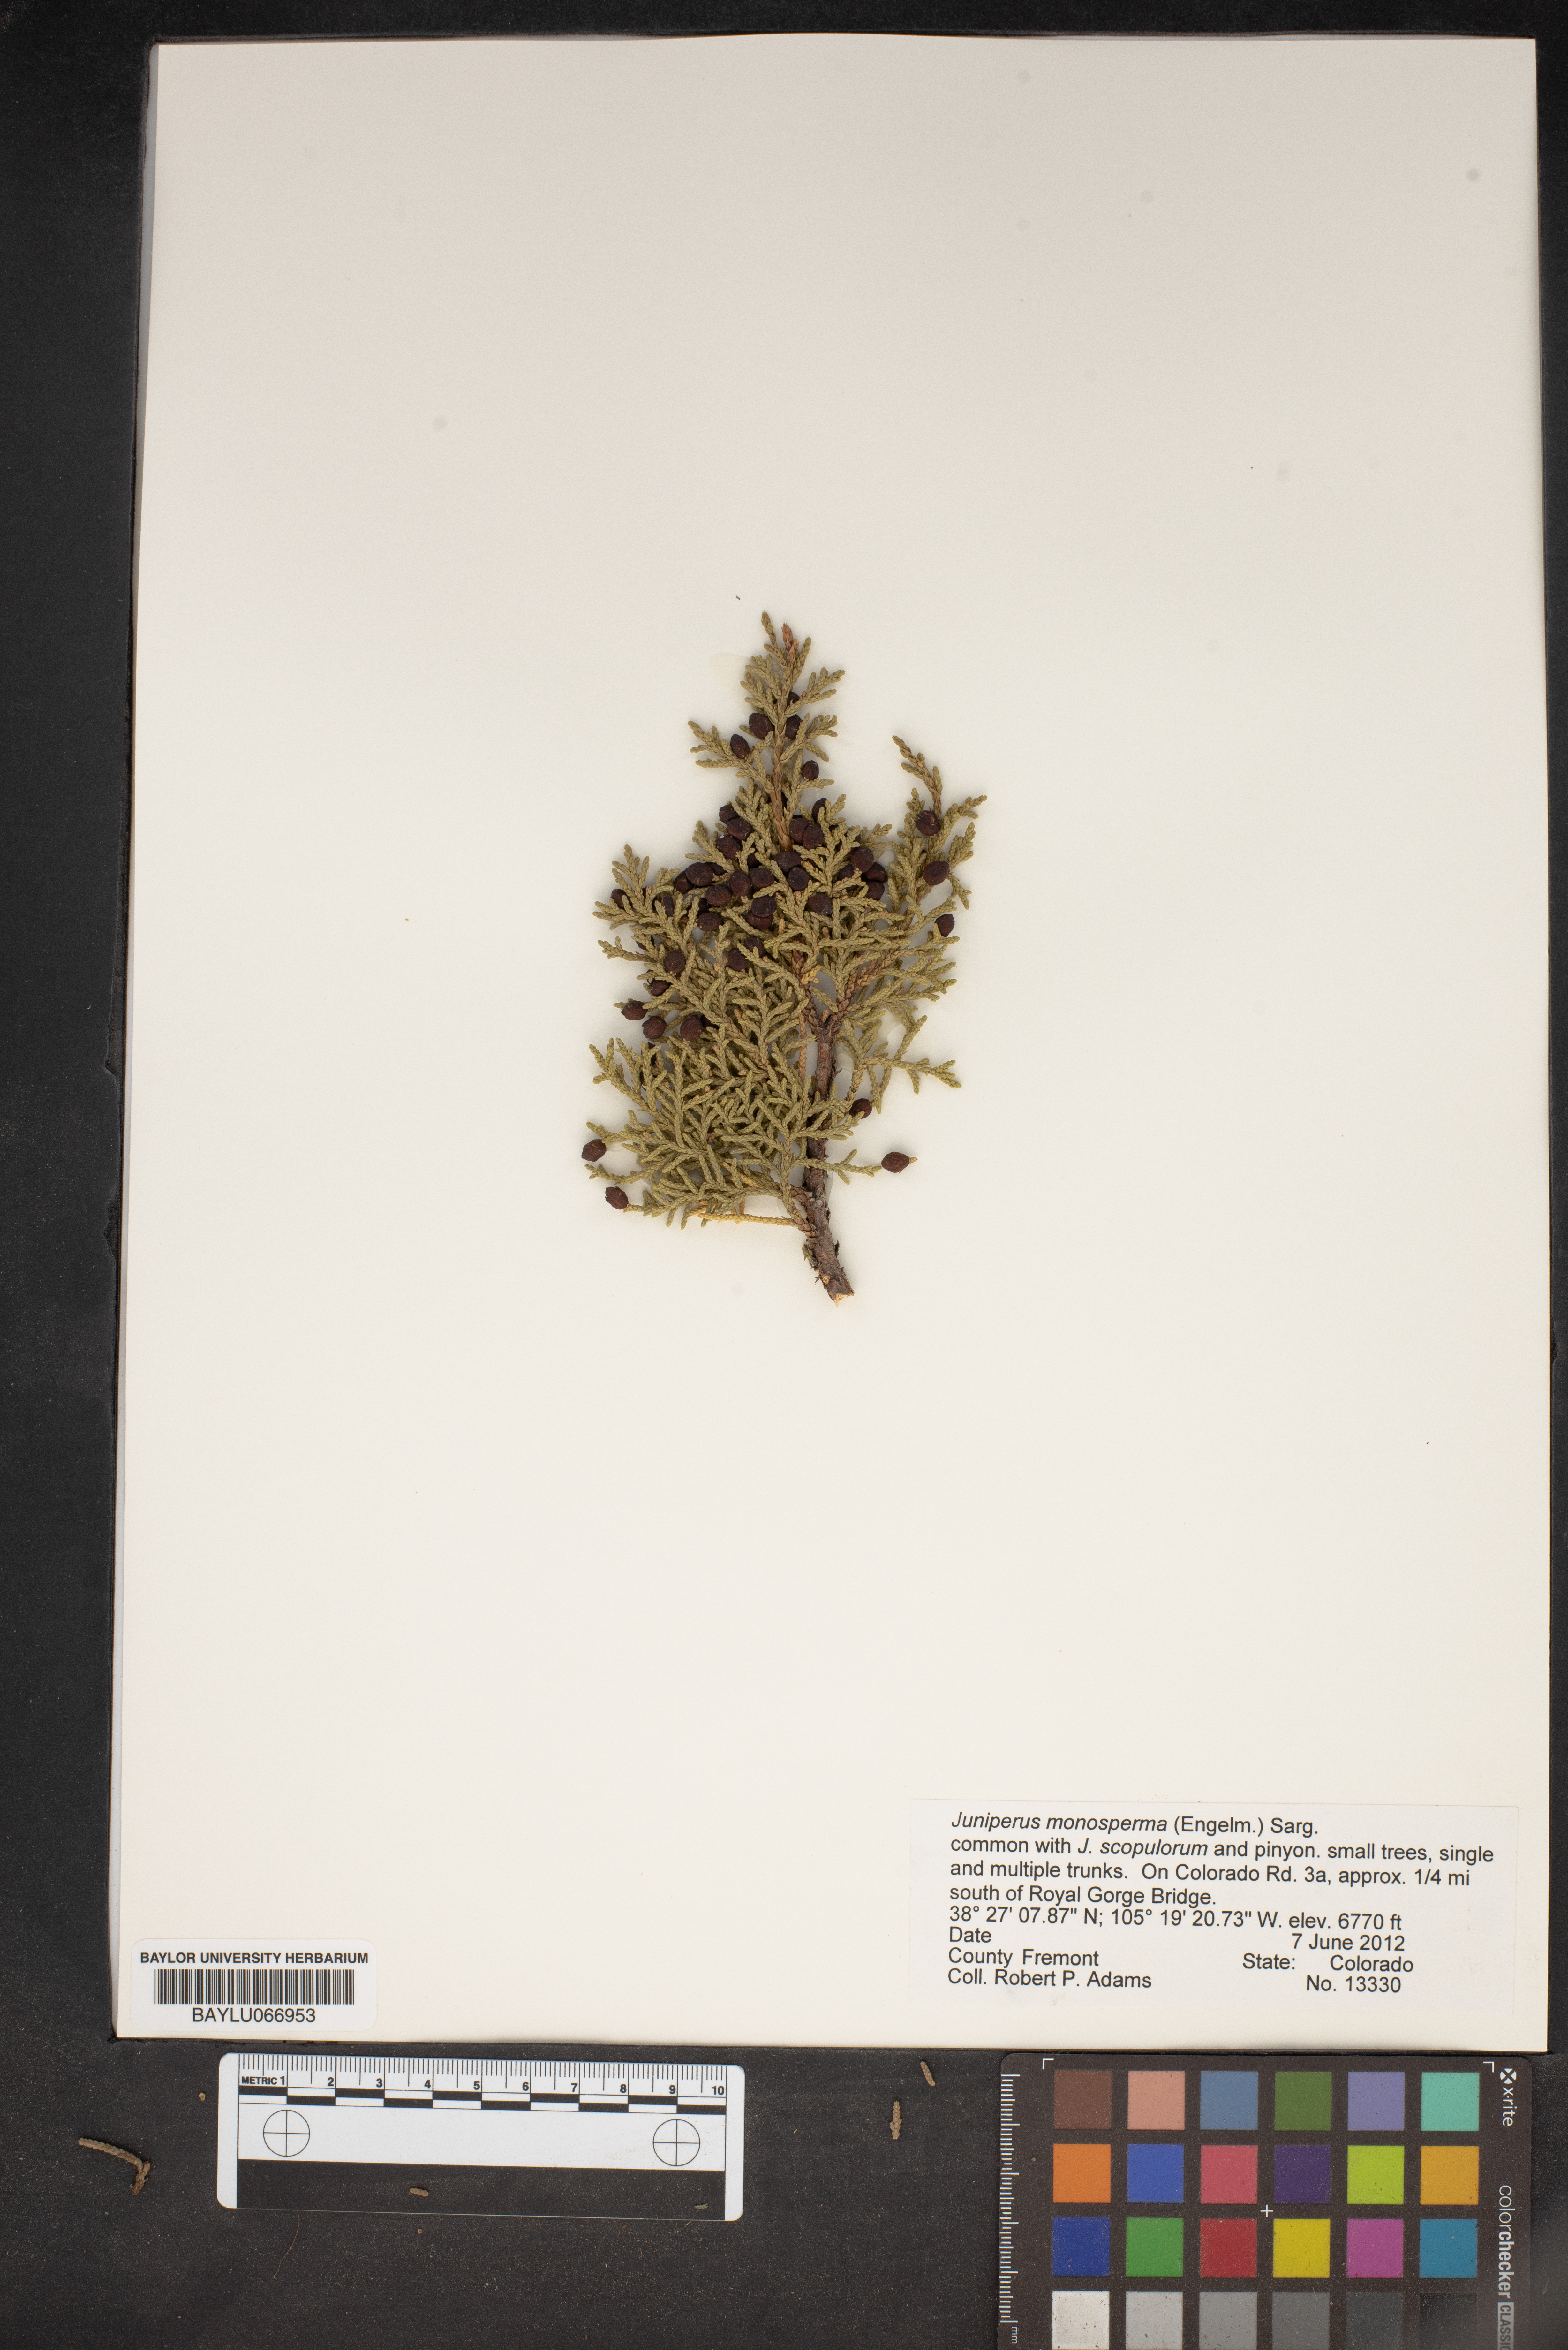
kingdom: Plantae
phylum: Tracheophyta
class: Pinopsida
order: Pinales
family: Cupressaceae
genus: Juniperus
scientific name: Juniperus monosperma
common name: One-seed juniper
